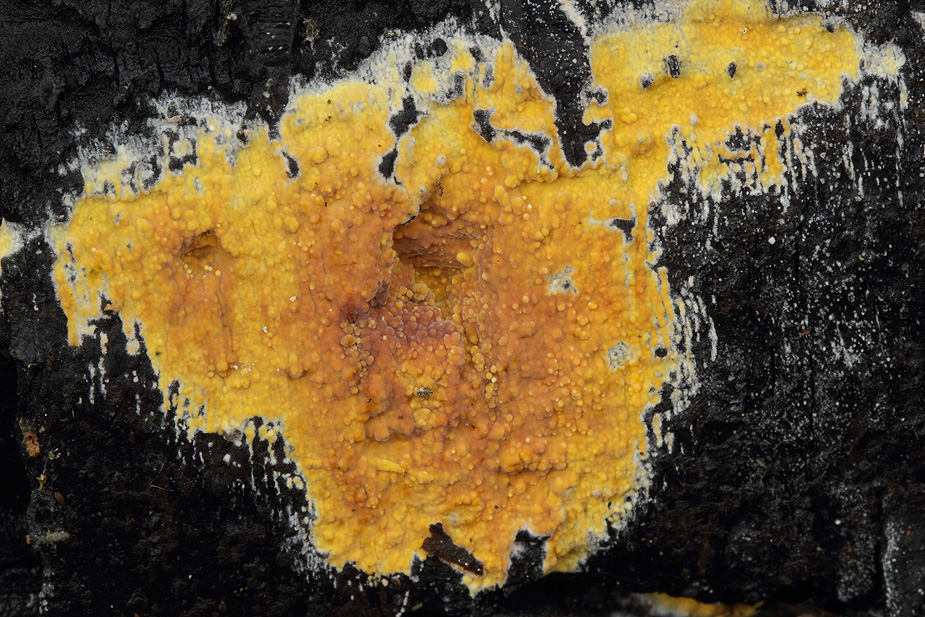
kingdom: Fungi
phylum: Basidiomycota
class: Agaricomycetes
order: Polyporales
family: Meruliaceae
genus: Phlebiodontia
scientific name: Phlebiodontia subochracea
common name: svovl-åresvamp
